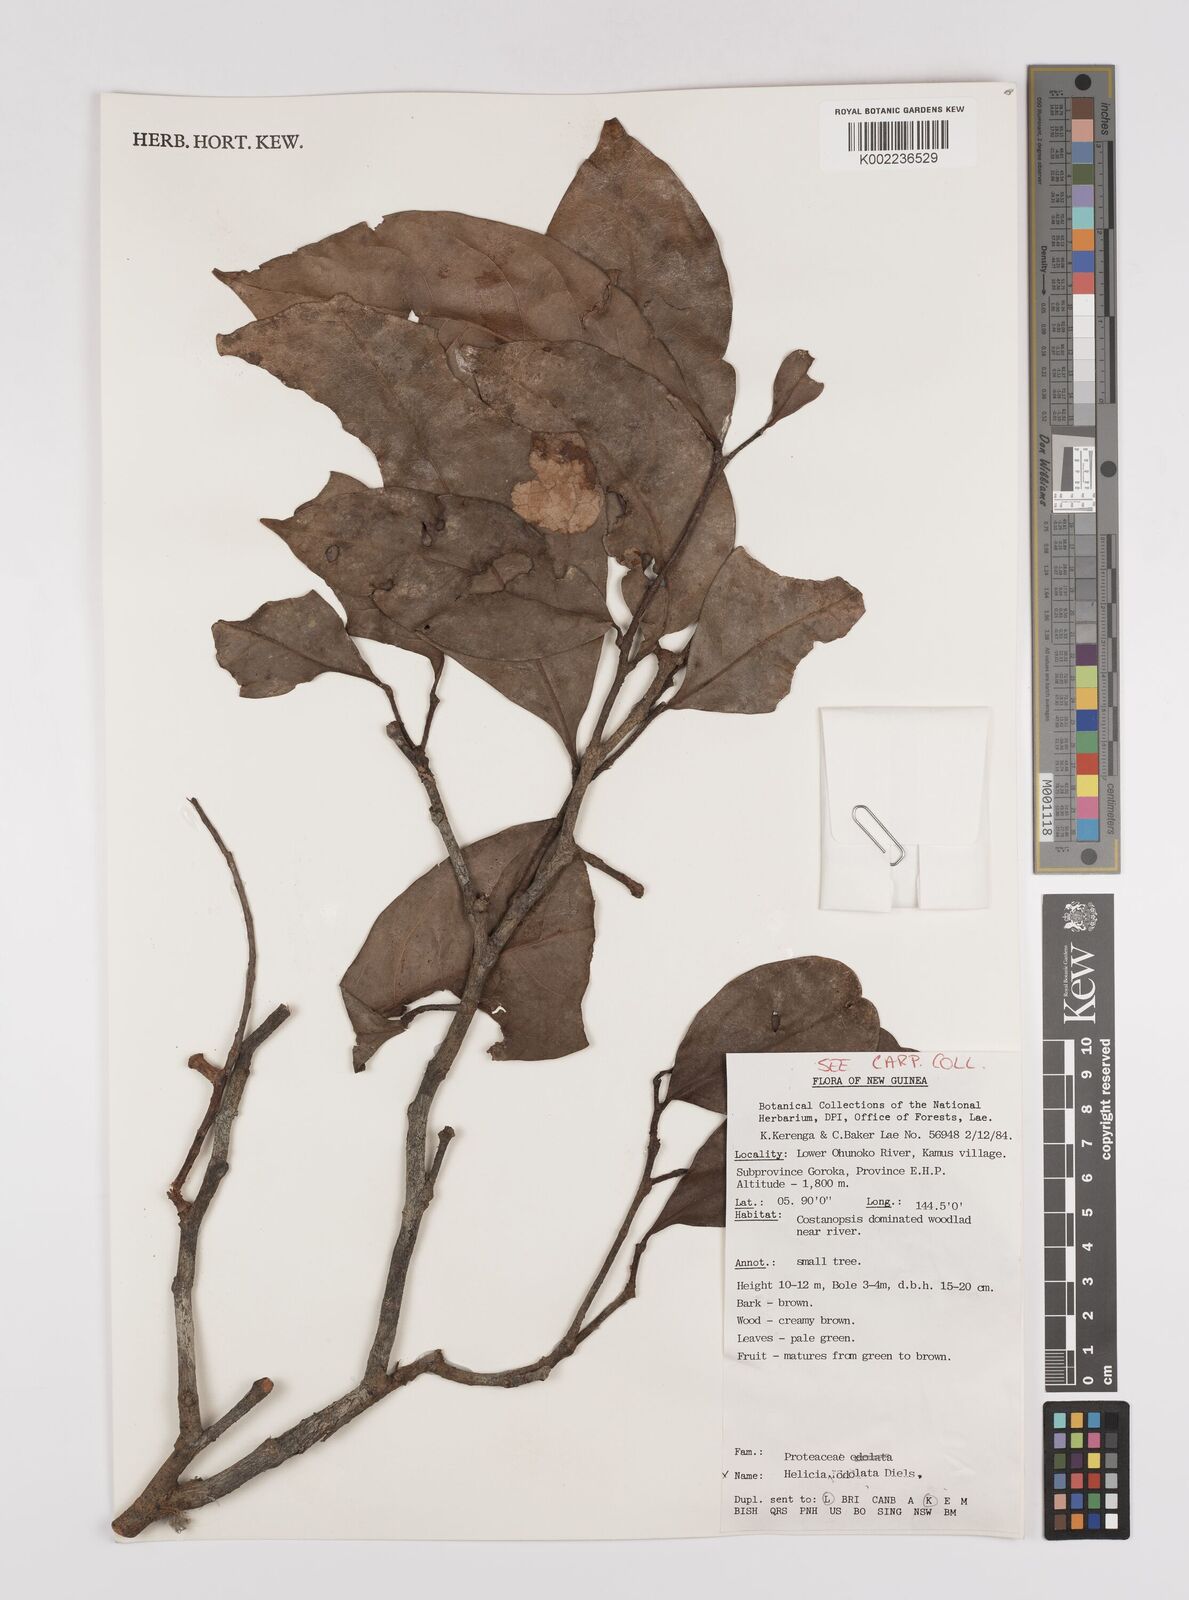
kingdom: Plantae
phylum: Tracheophyta
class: Magnoliopsida
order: Proteales
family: Proteaceae
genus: Helicia
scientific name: Helicia odorata
